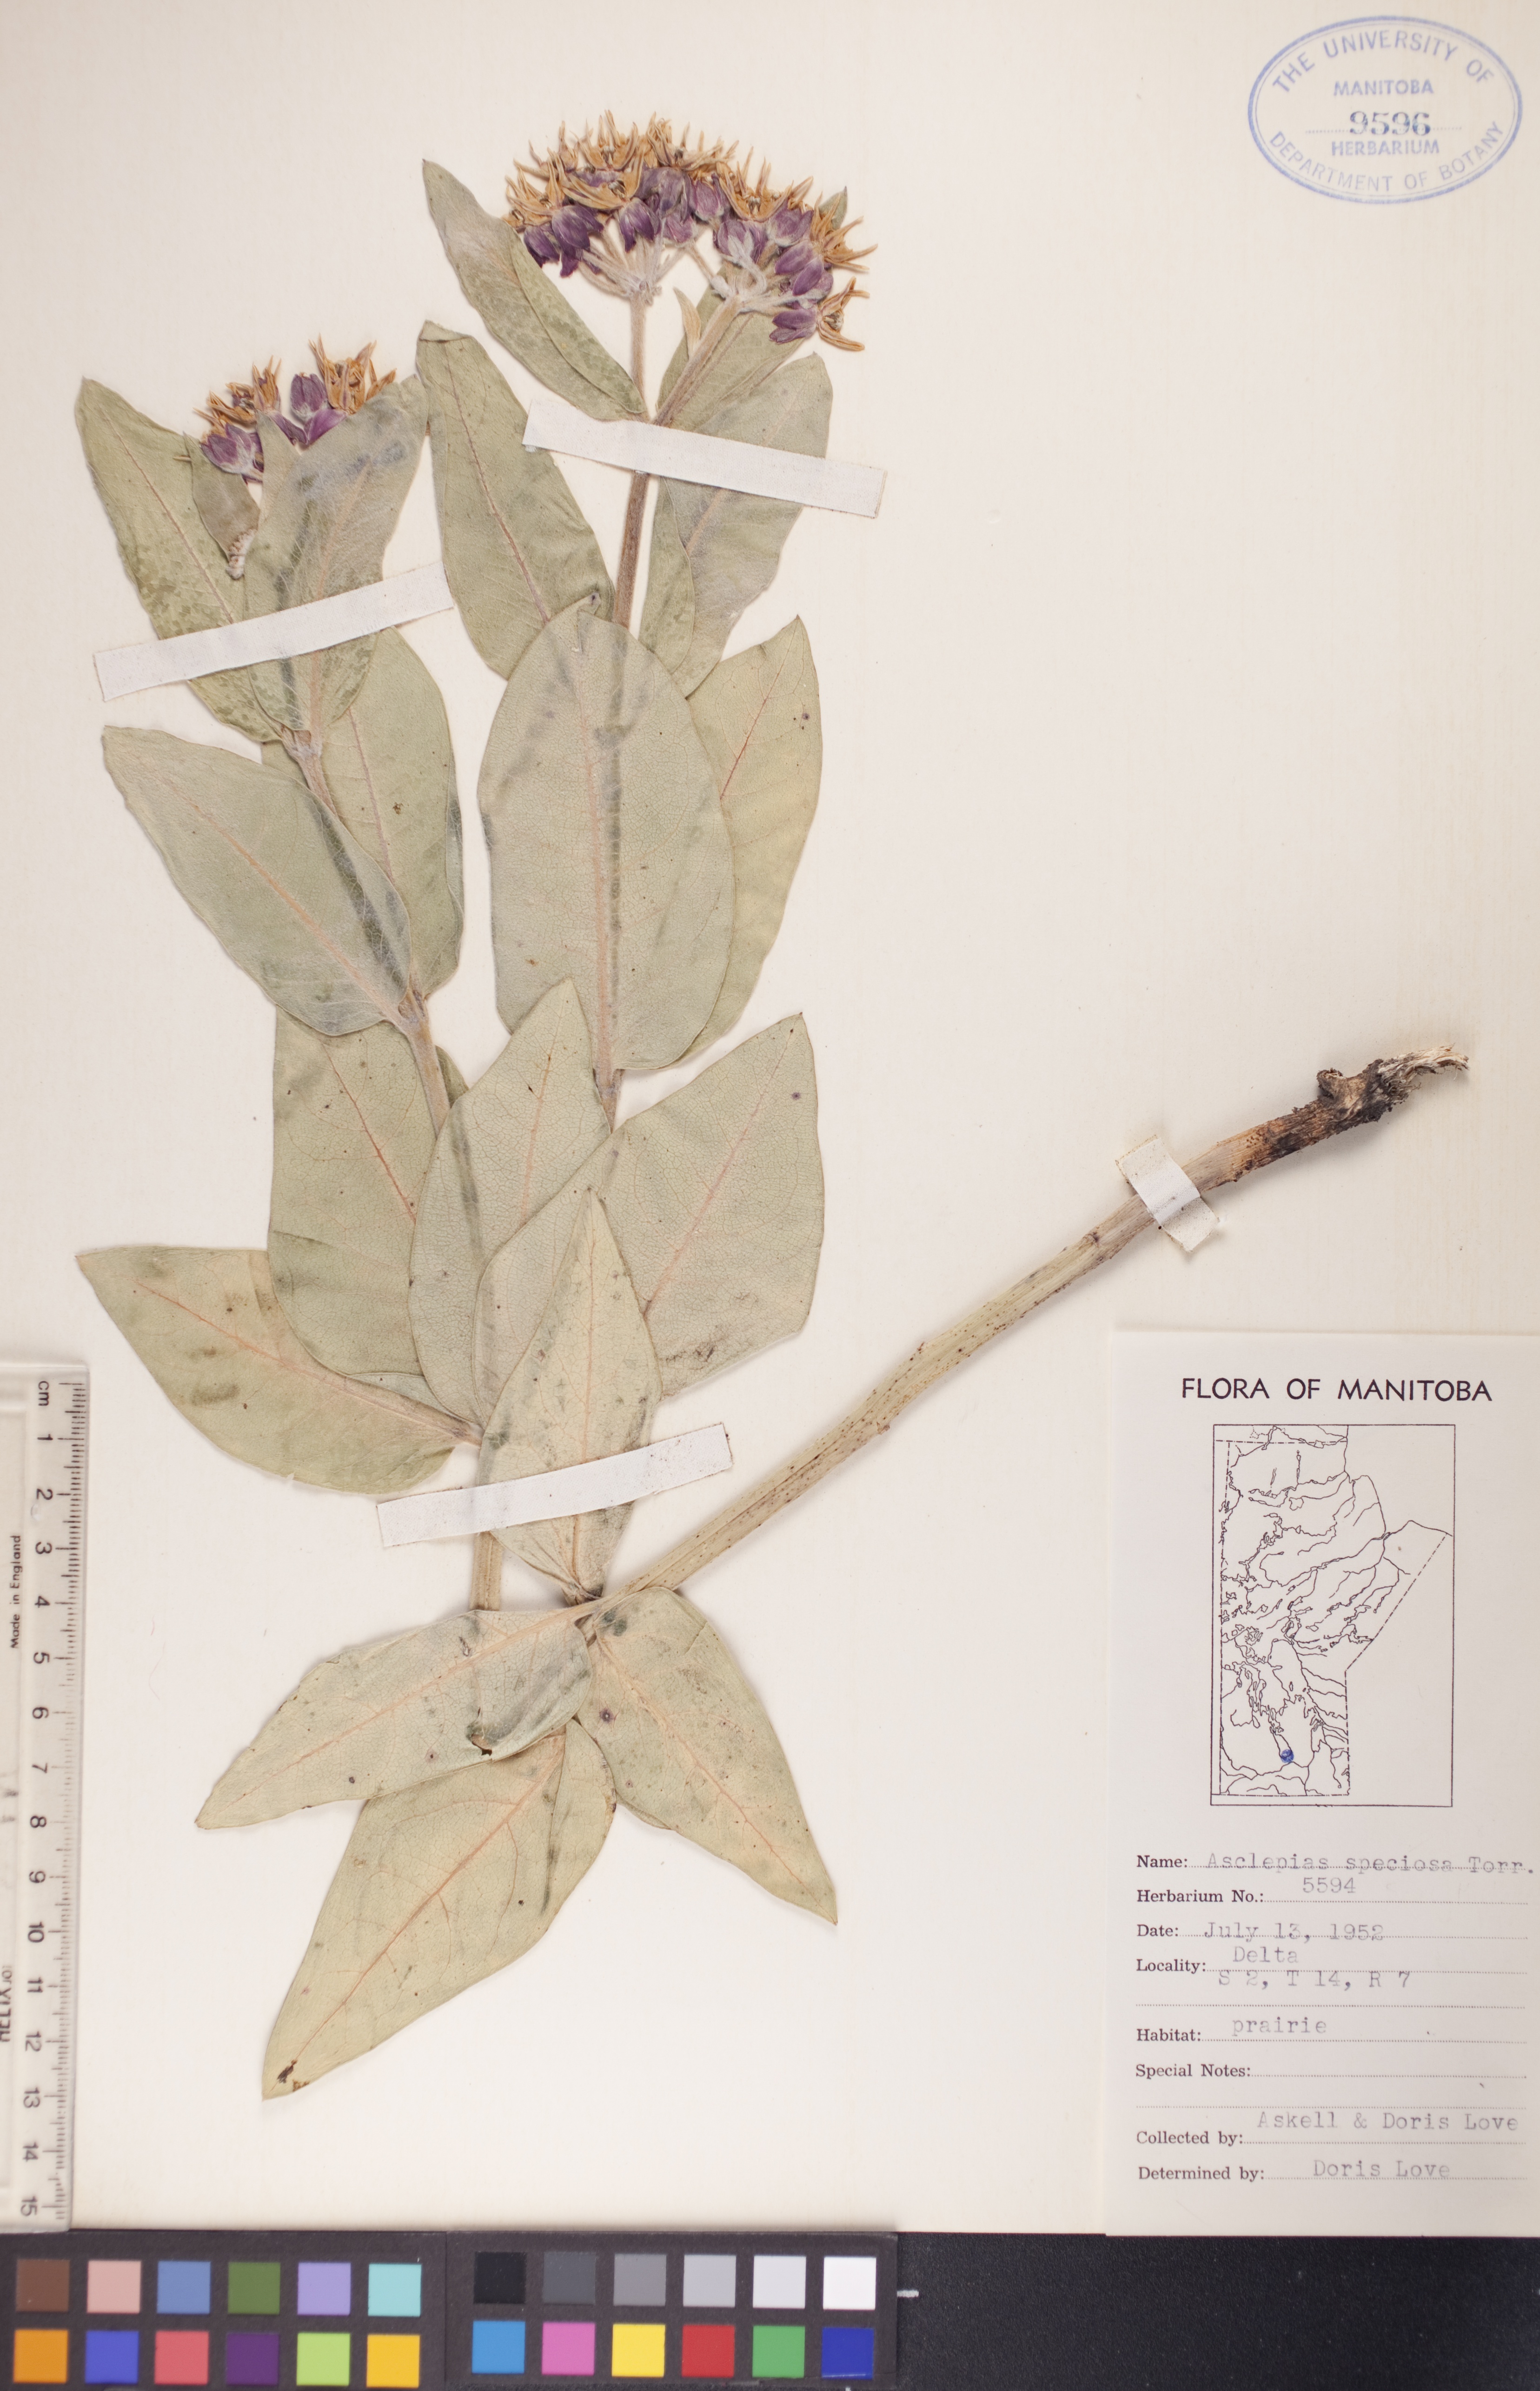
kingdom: Plantae
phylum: Tracheophyta
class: Magnoliopsida
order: Gentianales
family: Apocynaceae
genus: Asclepias
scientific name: Asclepias speciosa
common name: Showy milkweed
